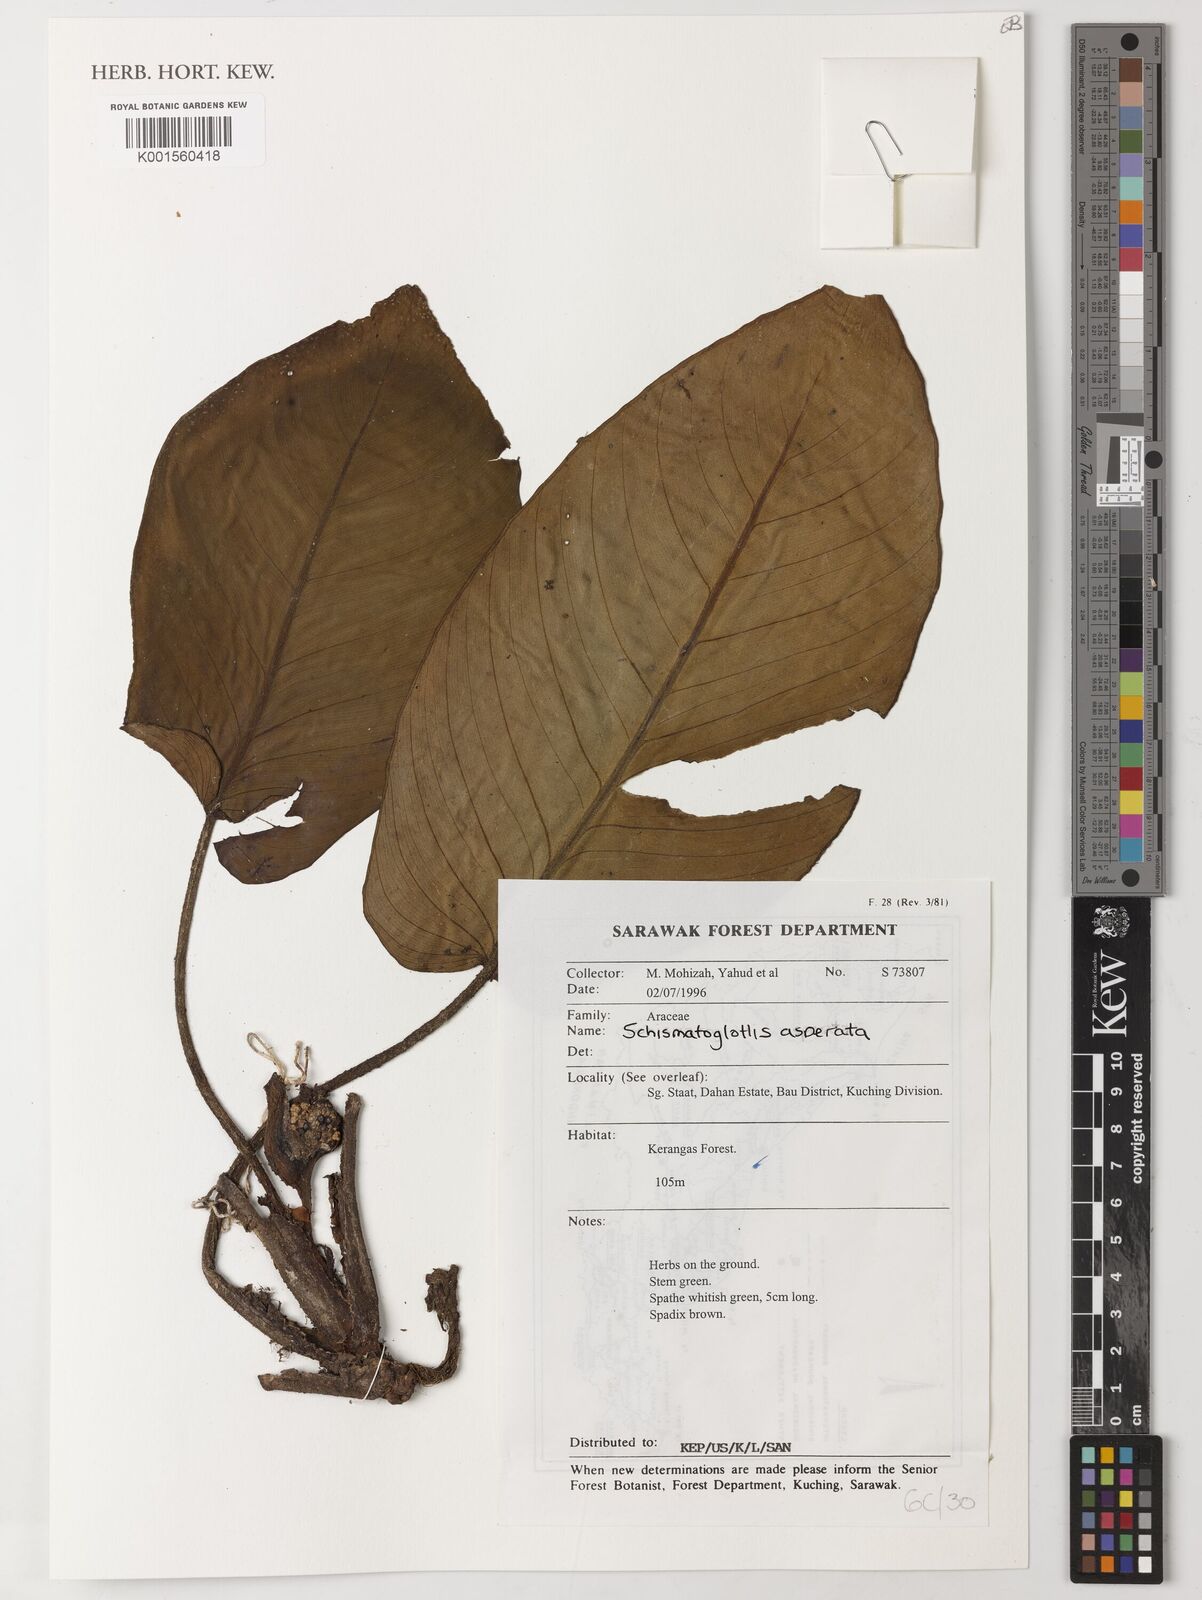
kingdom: Plantae
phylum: Tracheophyta
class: Liliopsida
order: Alismatales
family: Araceae
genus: Schismatoglottis
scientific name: Schismatoglottis asperata
